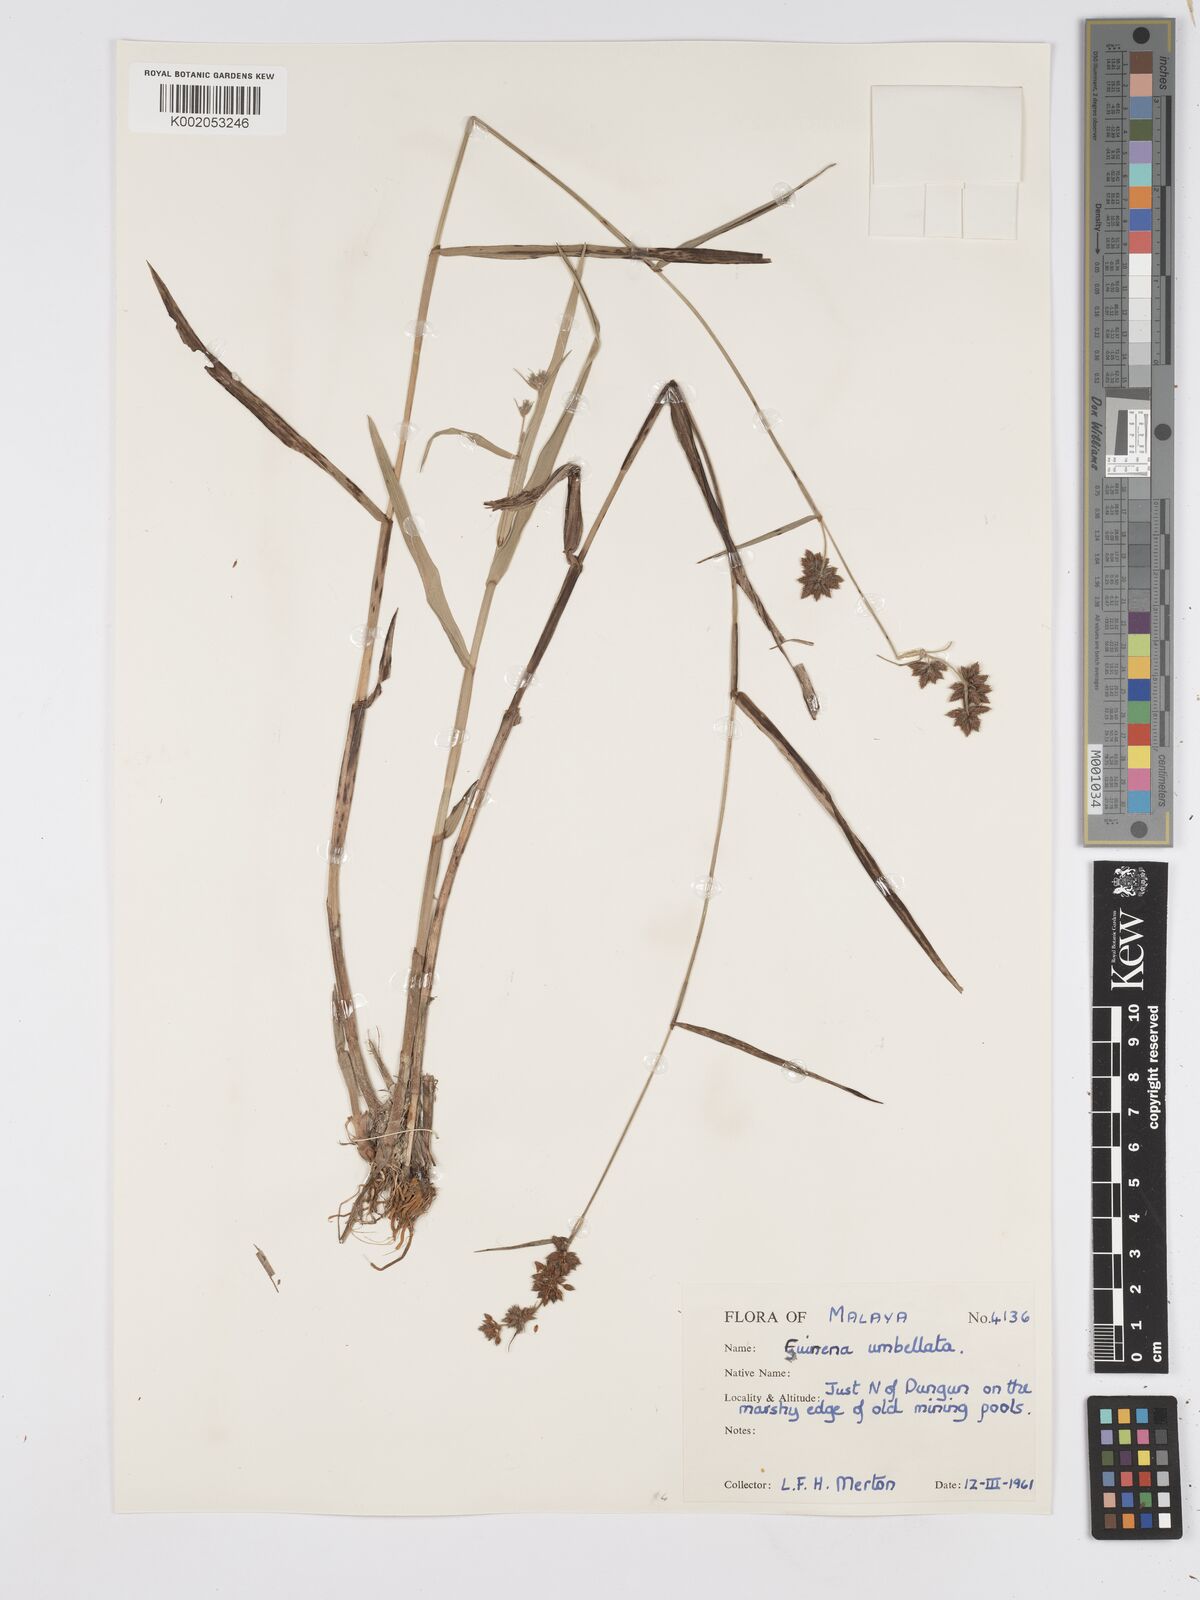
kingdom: Plantae
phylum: Tracheophyta
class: Liliopsida
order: Poales
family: Cyperaceae
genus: Fuirena
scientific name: Fuirena umbellata
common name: Yefen
